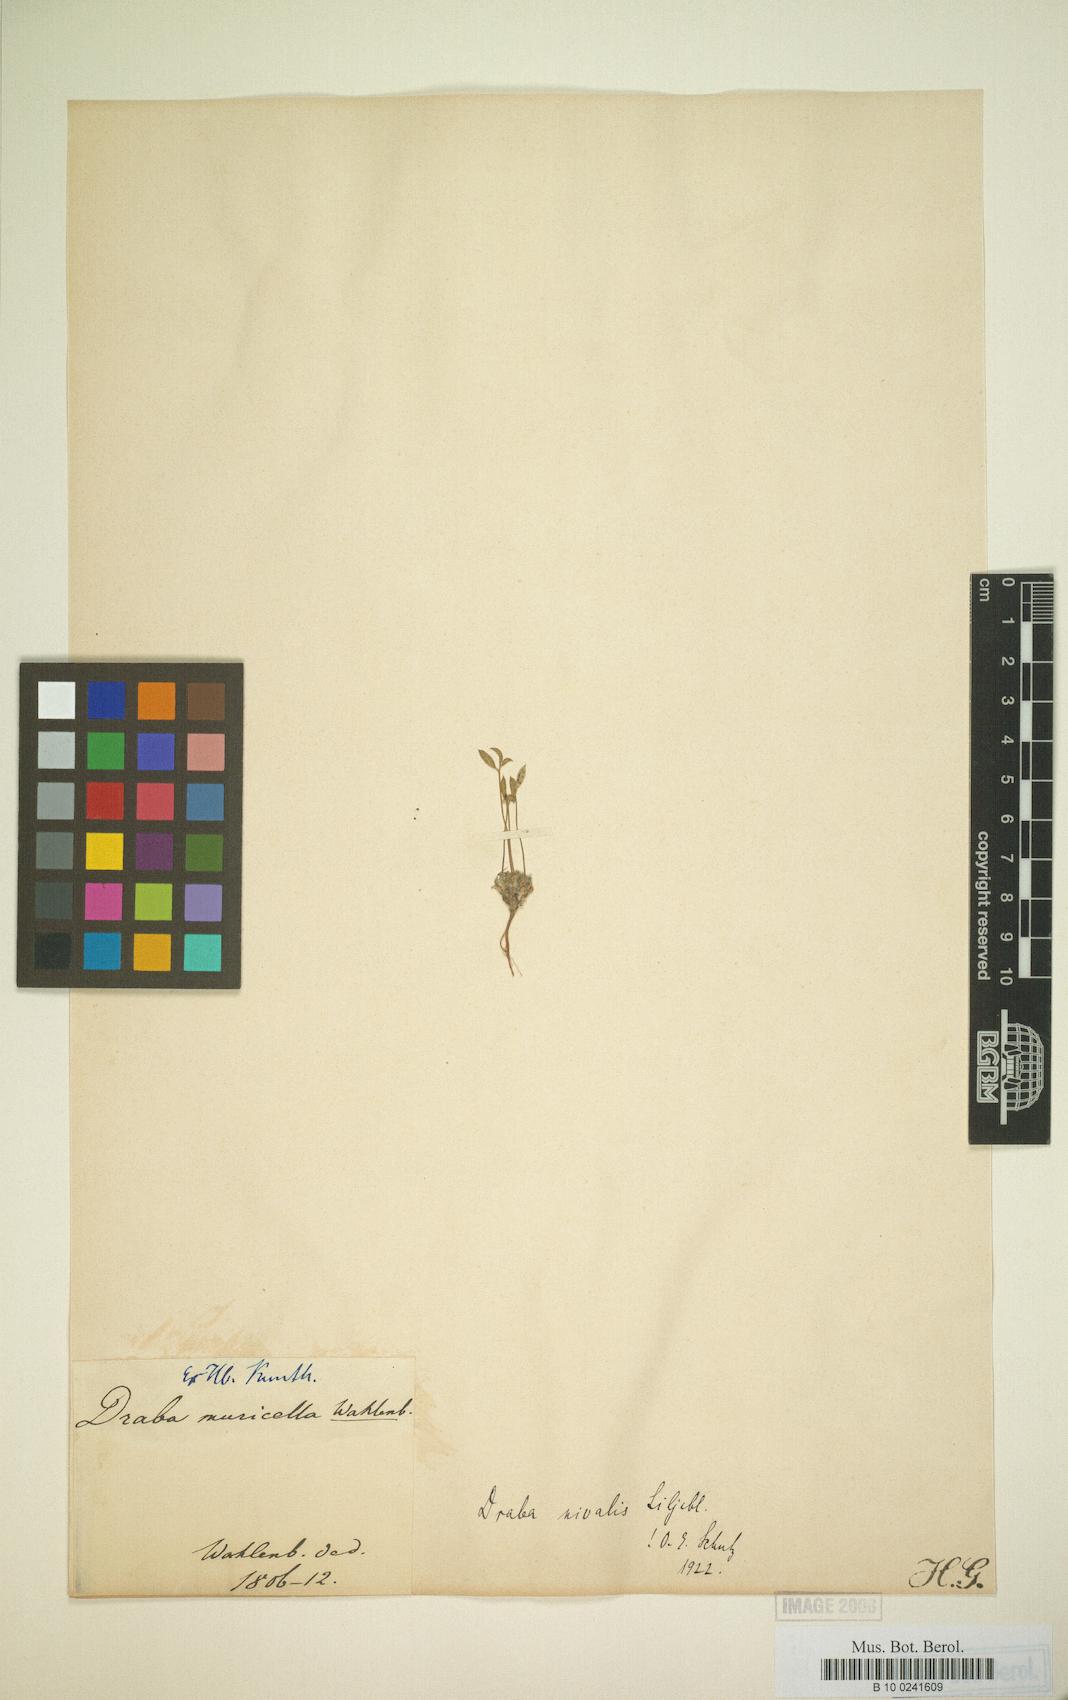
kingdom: Plantae
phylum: Tracheophyta
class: Magnoliopsida
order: Brassicales
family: Brassicaceae
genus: Draba
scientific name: Draba nivalis
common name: Snow draba
